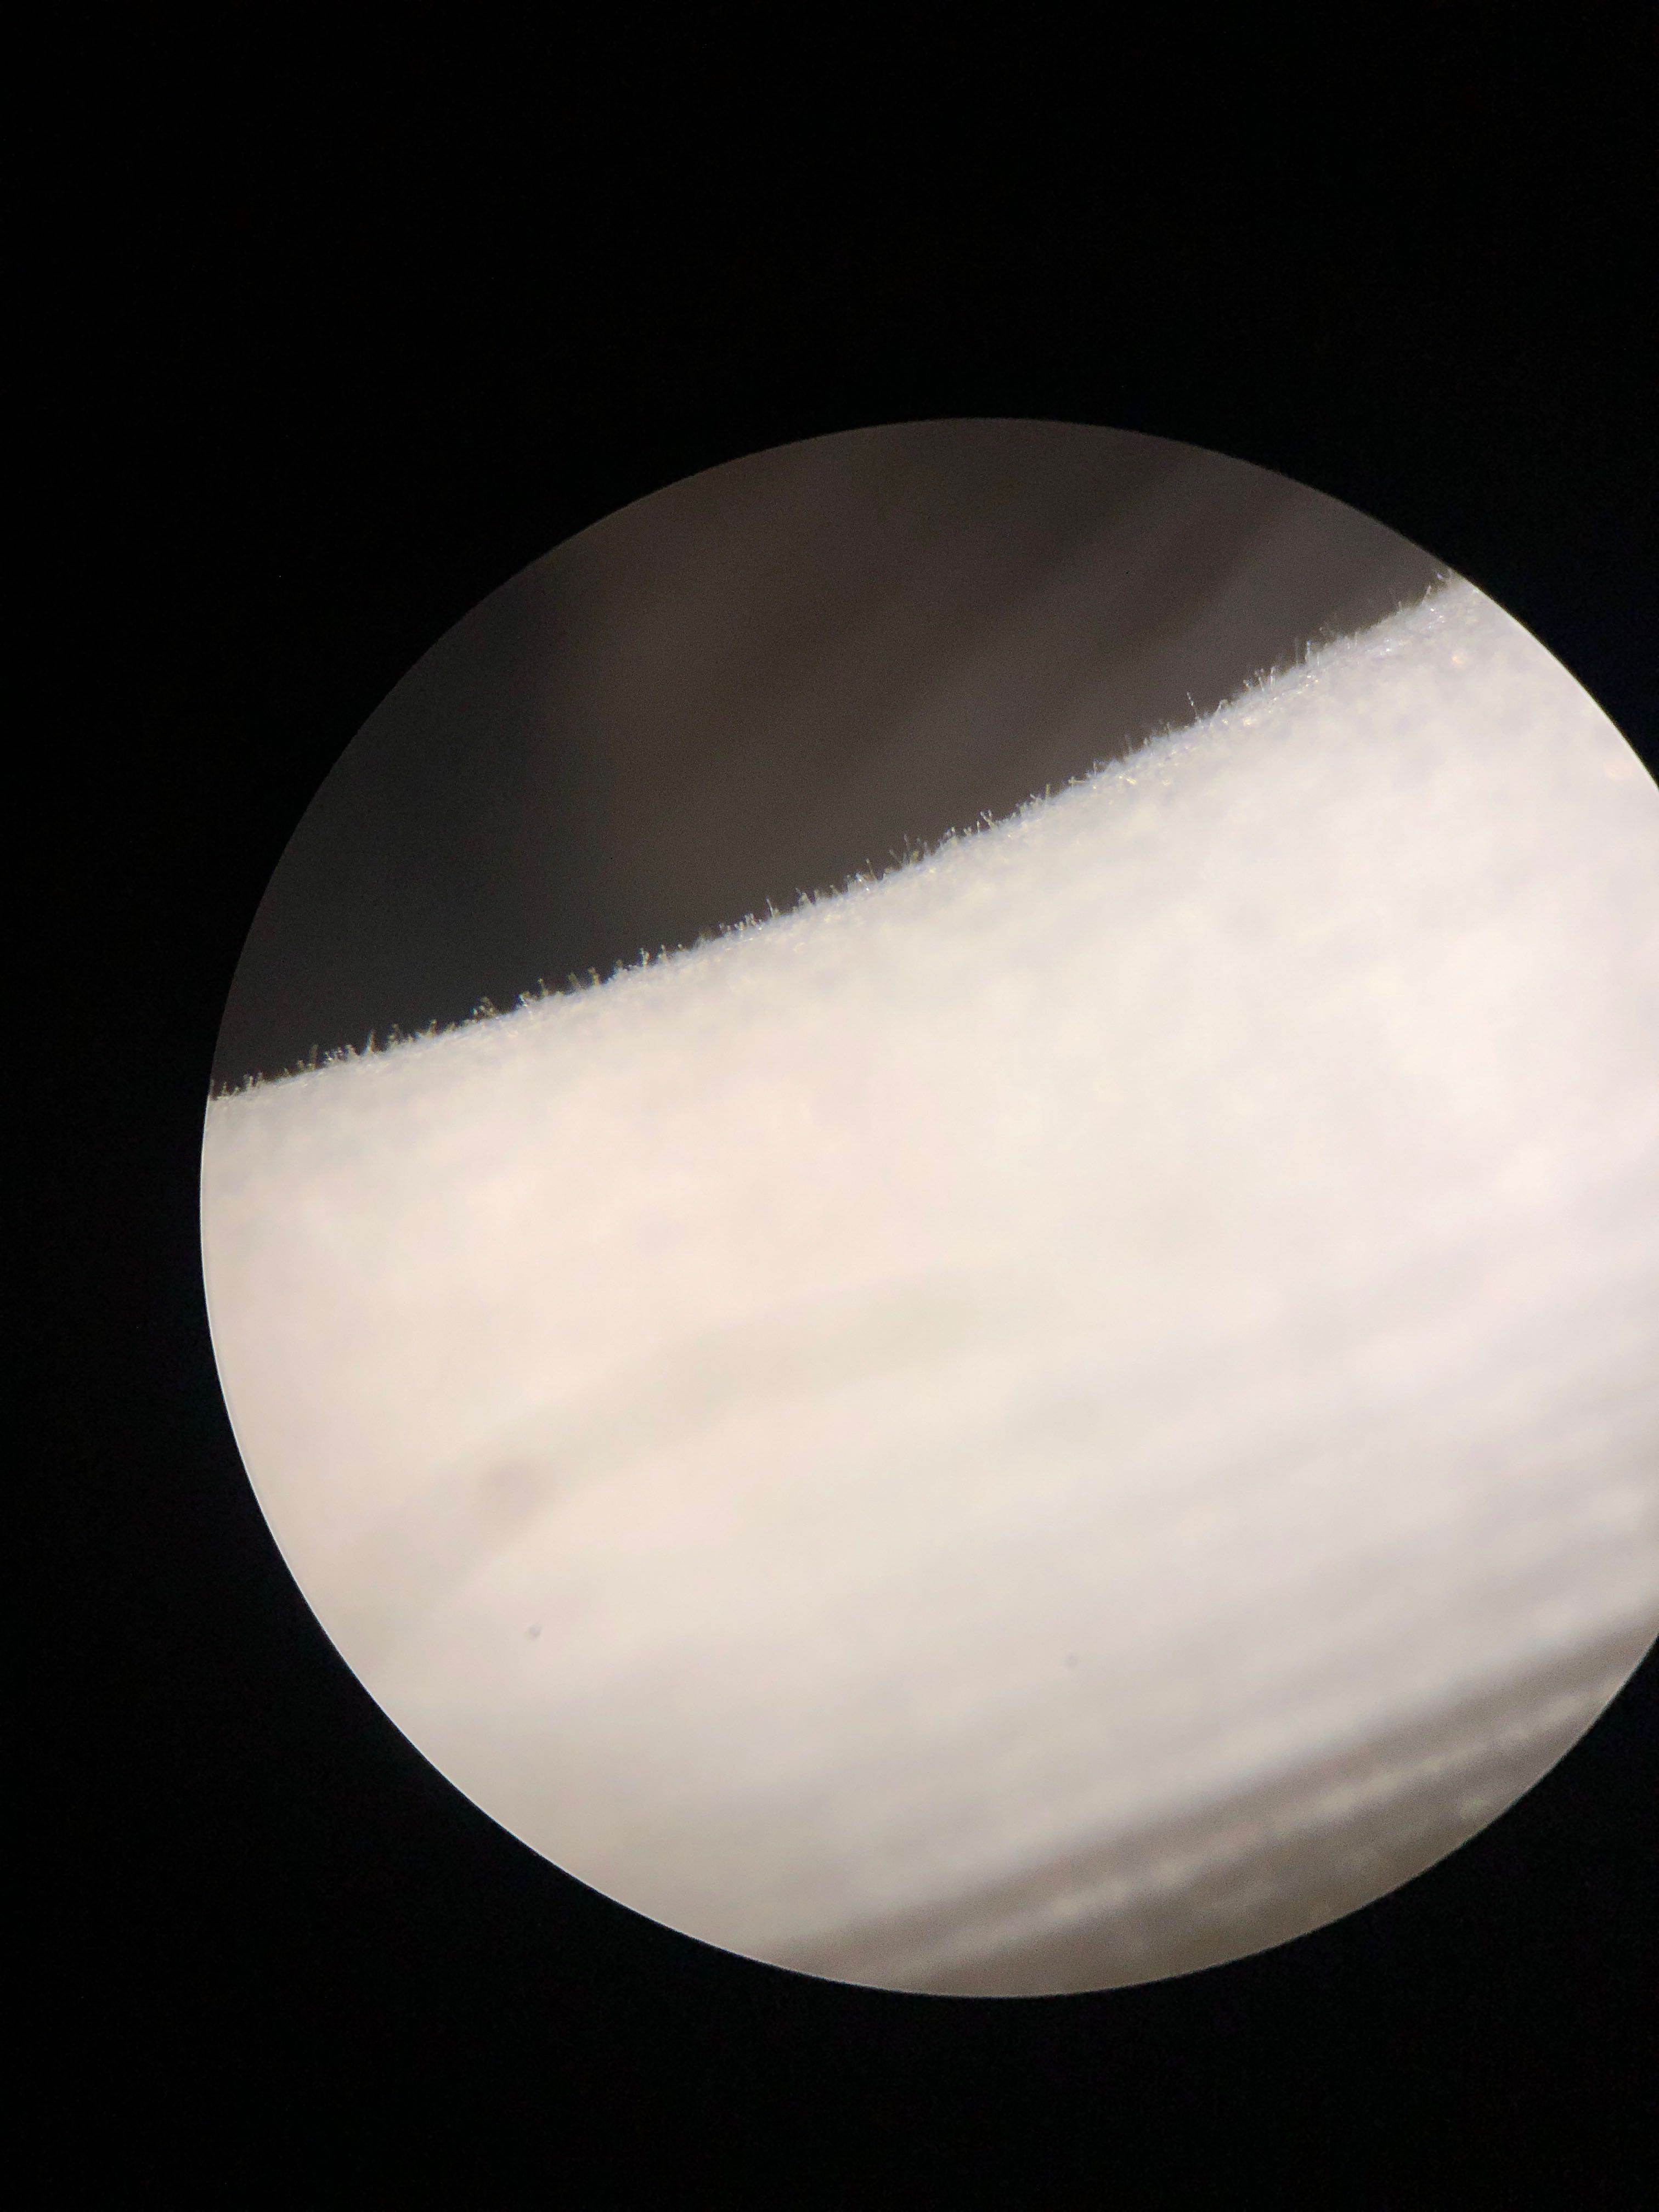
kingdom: Fungi
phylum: Basidiomycota
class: Agaricomycetes
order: Agaricales
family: Psathyrellaceae
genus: Coprinellus
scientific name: Coprinellus domesticus
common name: hus-blækhat
